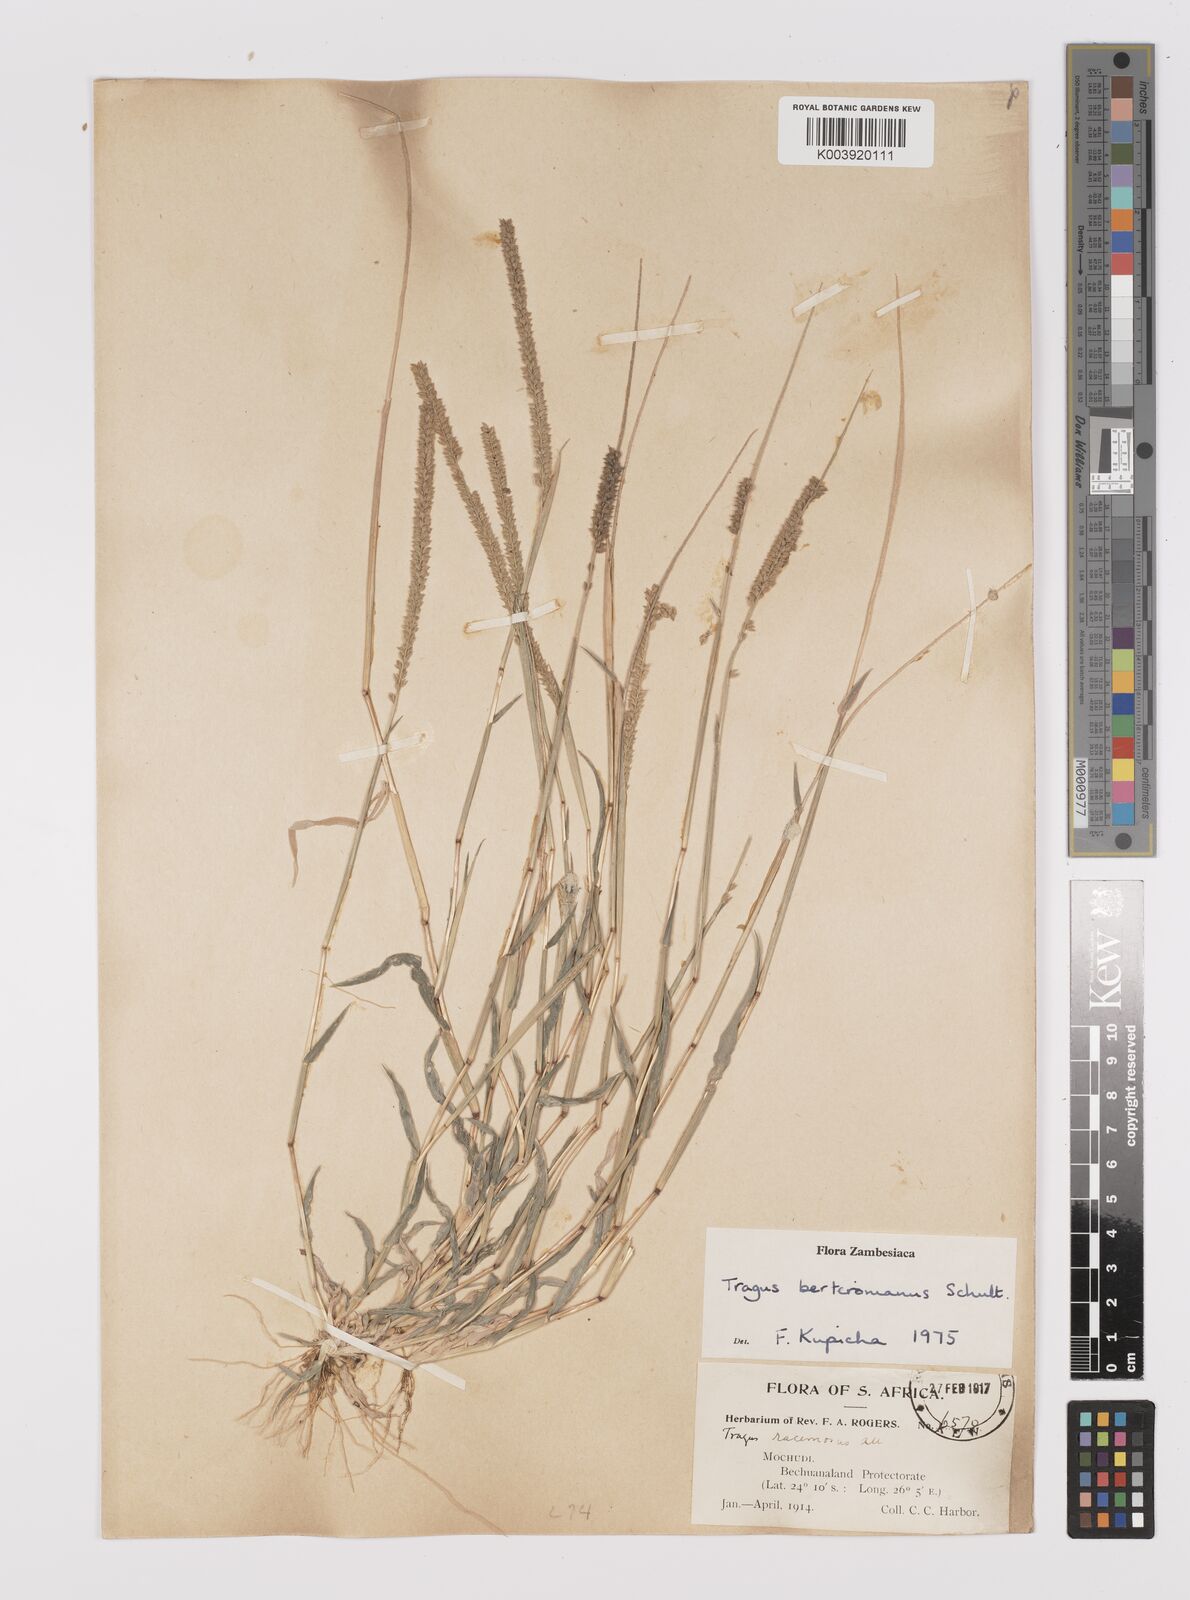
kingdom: Plantae
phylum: Tracheophyta
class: Liliopsida
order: Poales
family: Poaceae
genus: Tragus
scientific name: Tragus berteronianus
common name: African bur-grass
